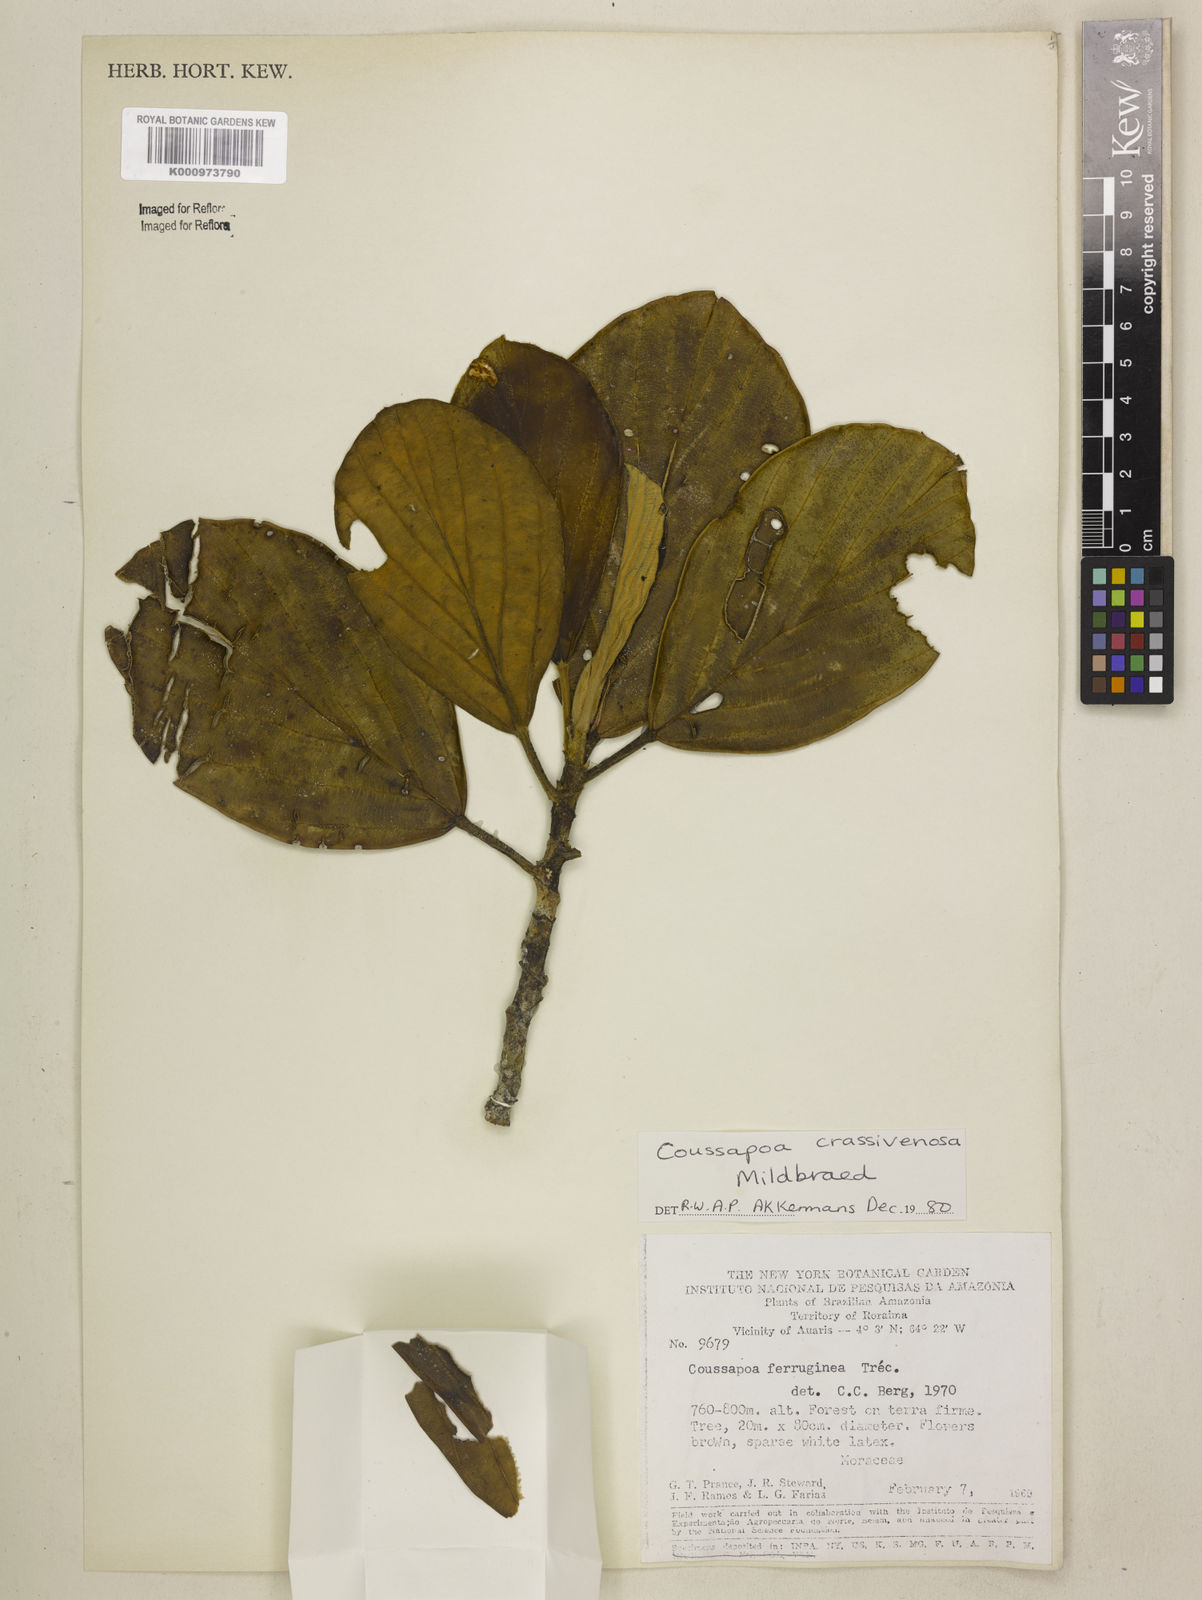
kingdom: Plantae
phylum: Tracheophyta
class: Magnoliopsida
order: Rosales
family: Urticaceae
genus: Coussapoa
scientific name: Coussapoa crassivenosa
